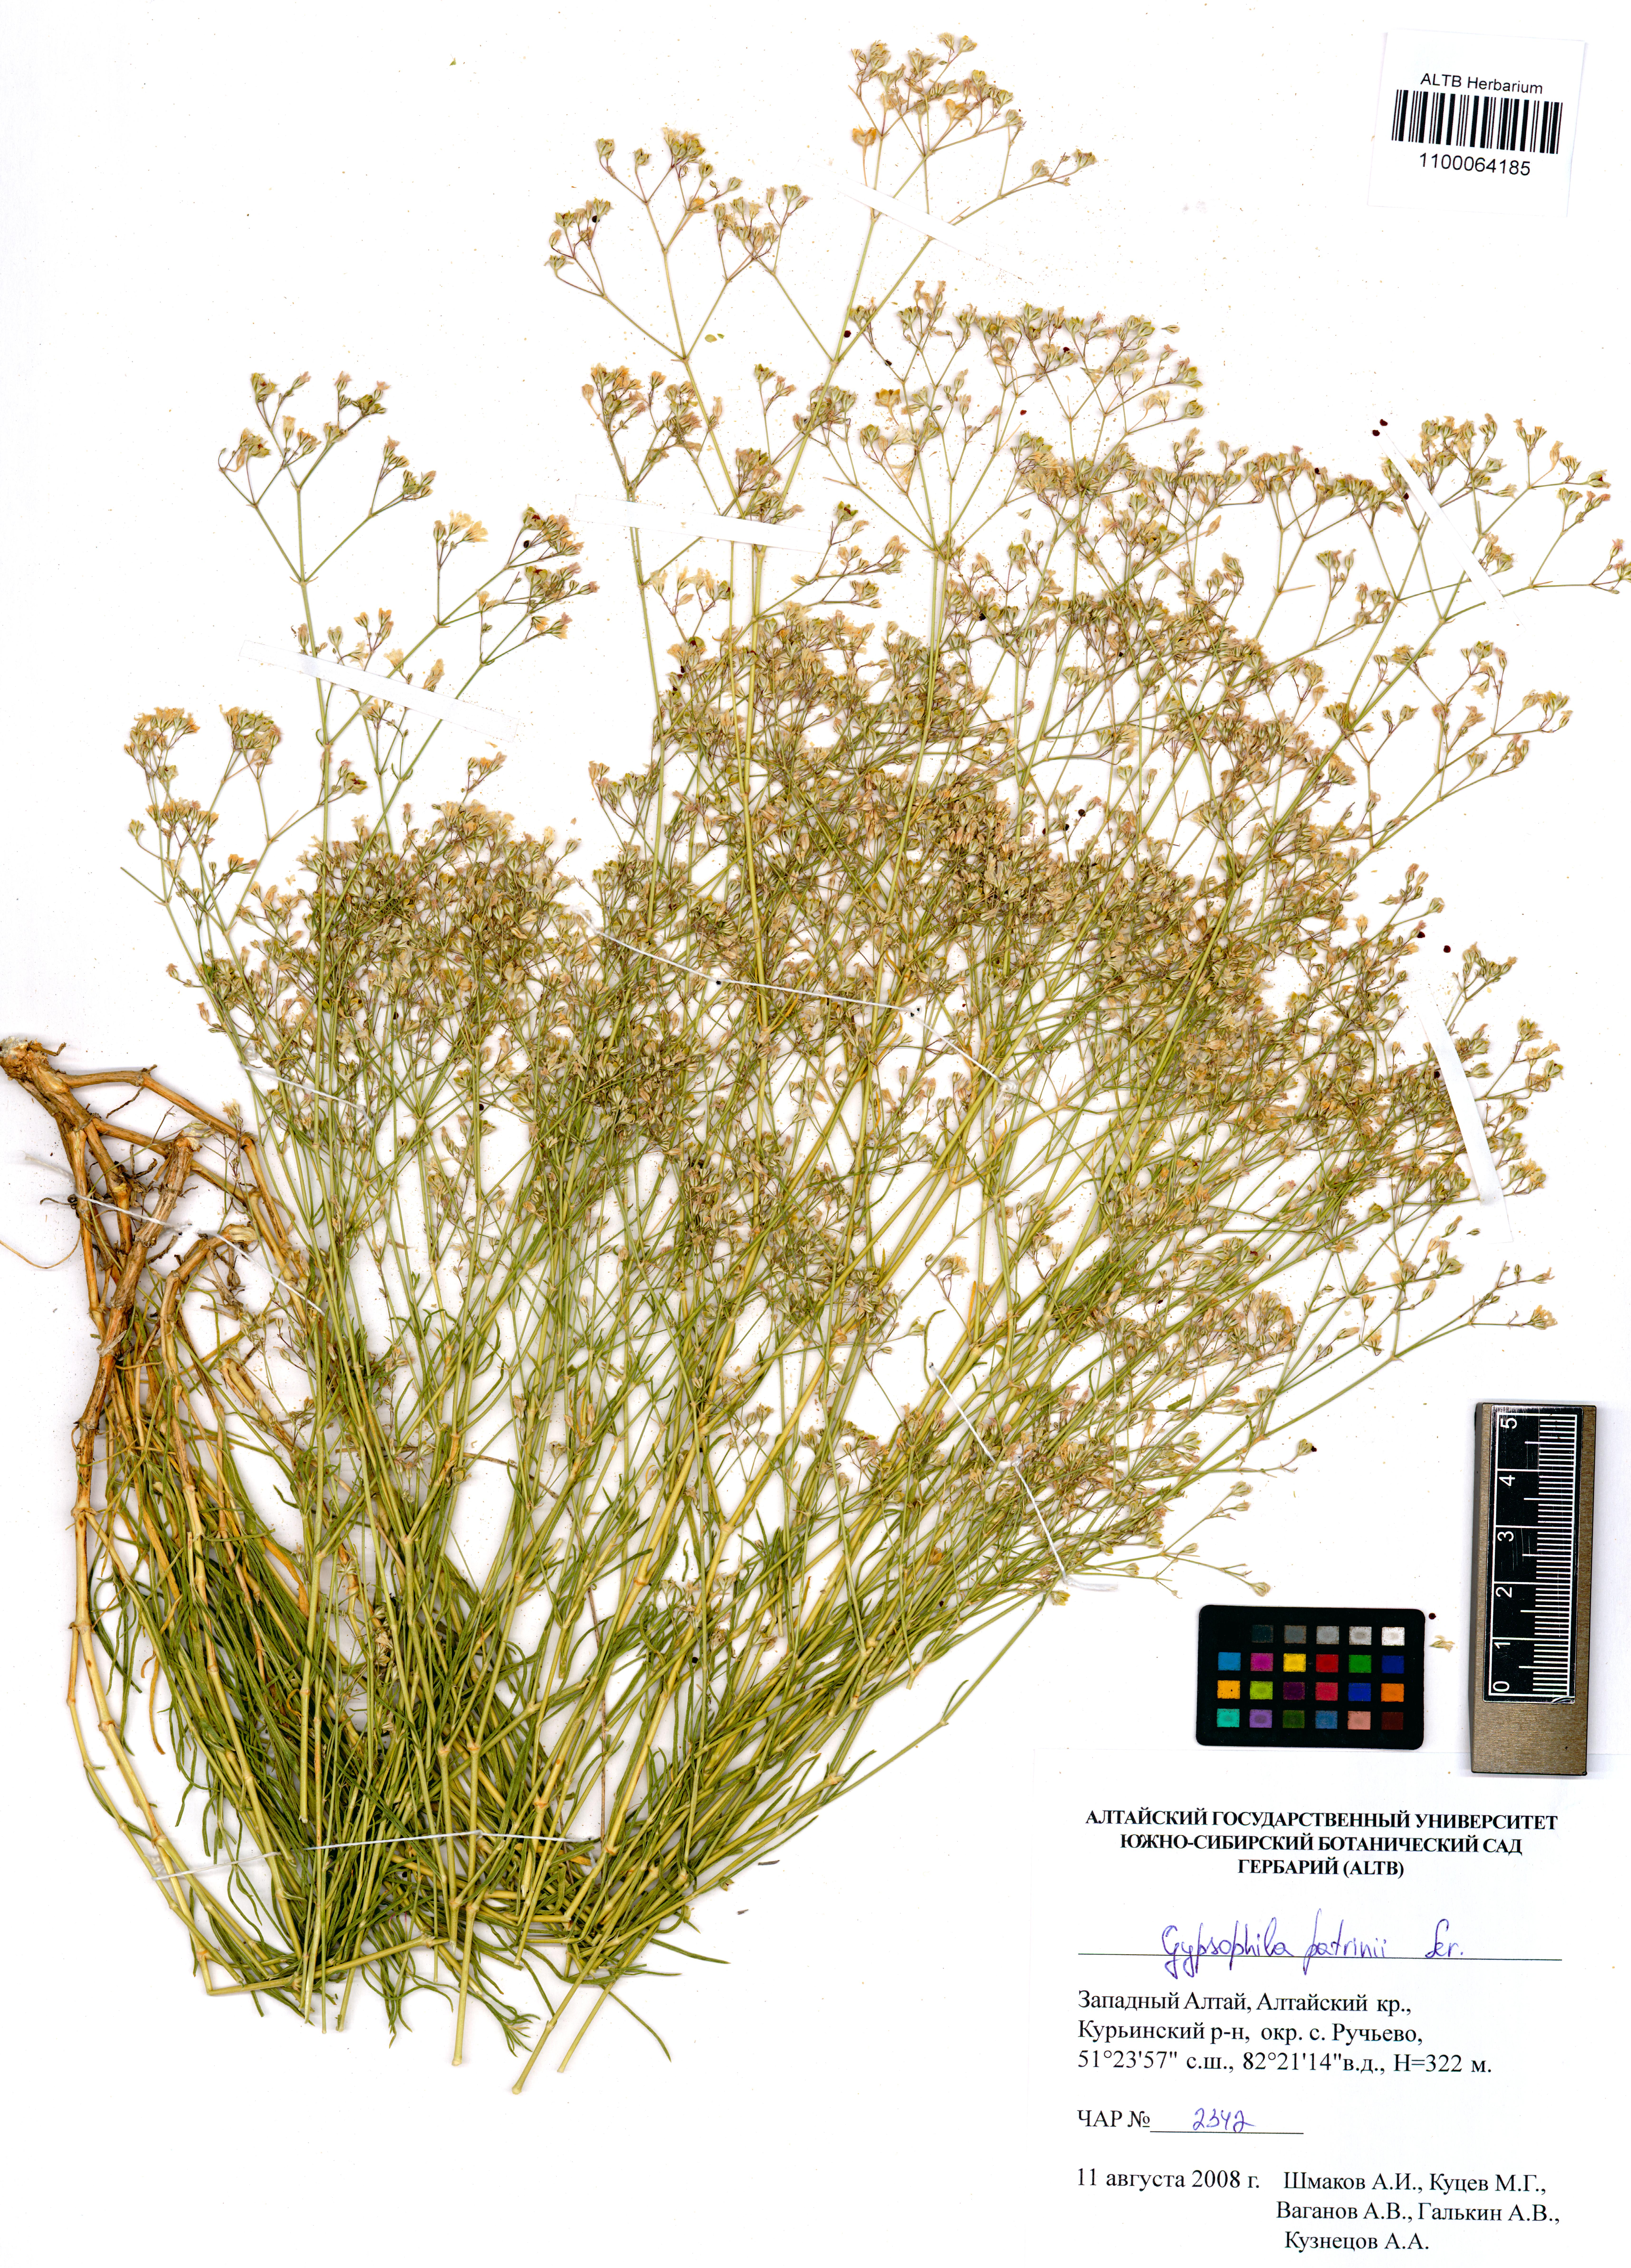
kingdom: Plantae
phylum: Tracheophyta
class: Magnoliopsida
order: Caryophyllales
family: Caryophyllaceae
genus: Gypsophila
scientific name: Gypsophila patrinii
